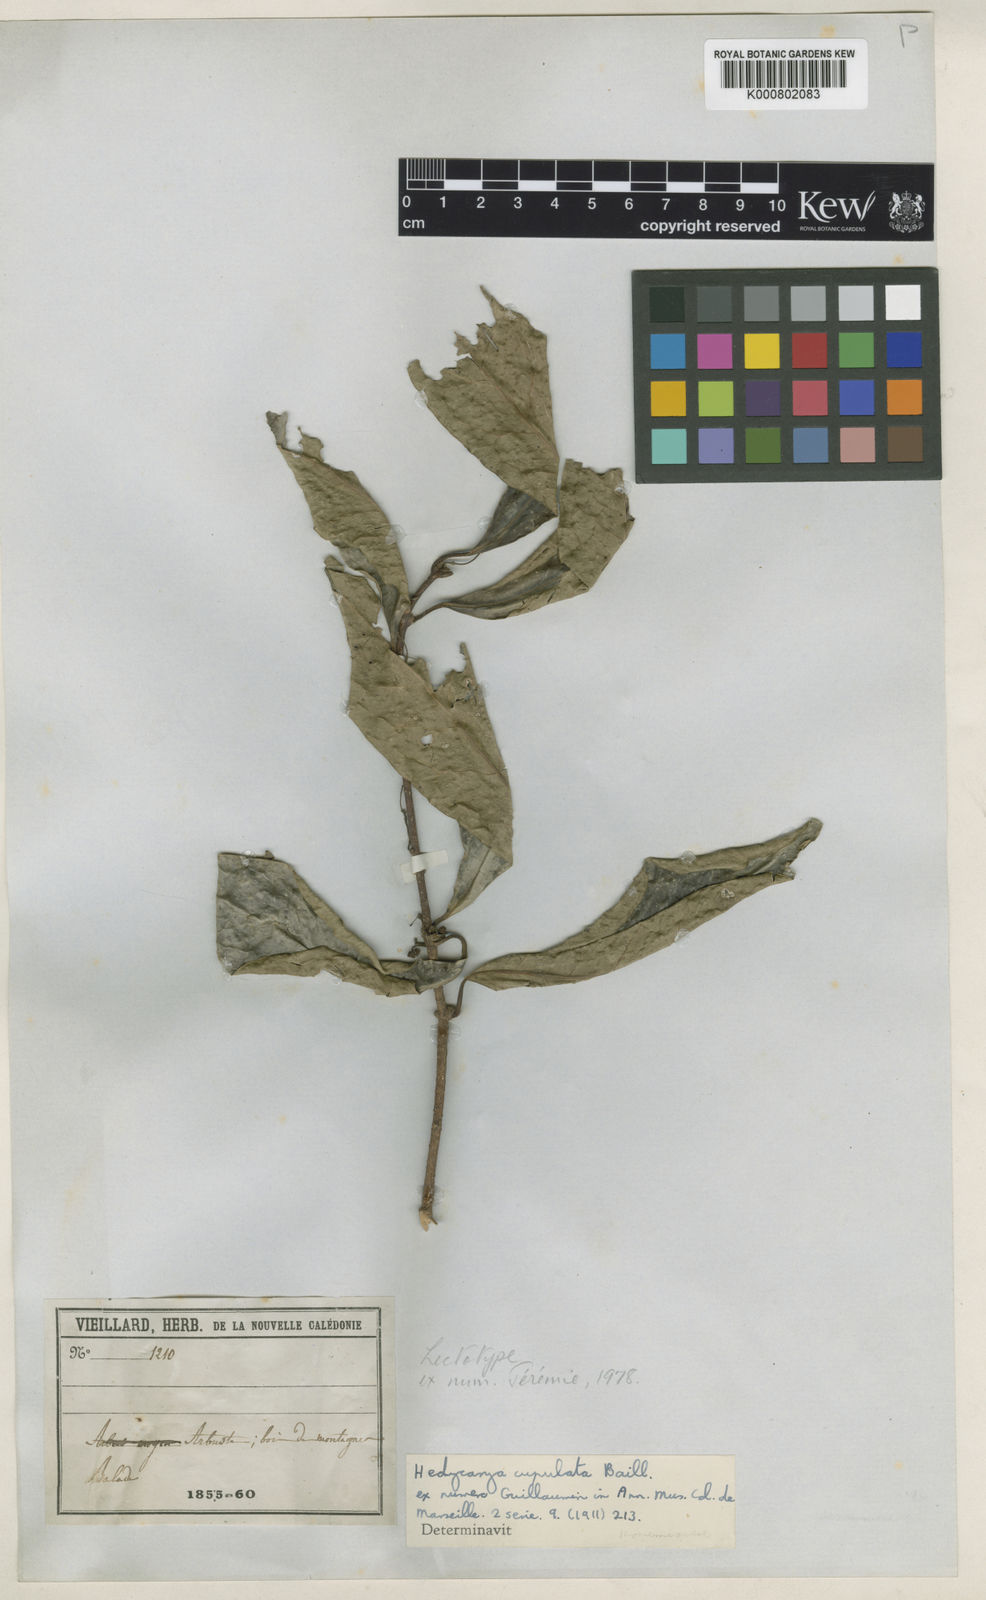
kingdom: Plantae
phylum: Tracheophyta
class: Magnoliopsida
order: Laurales
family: Monimiaceae
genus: Hedycarya
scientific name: Hedycarya cupulata
